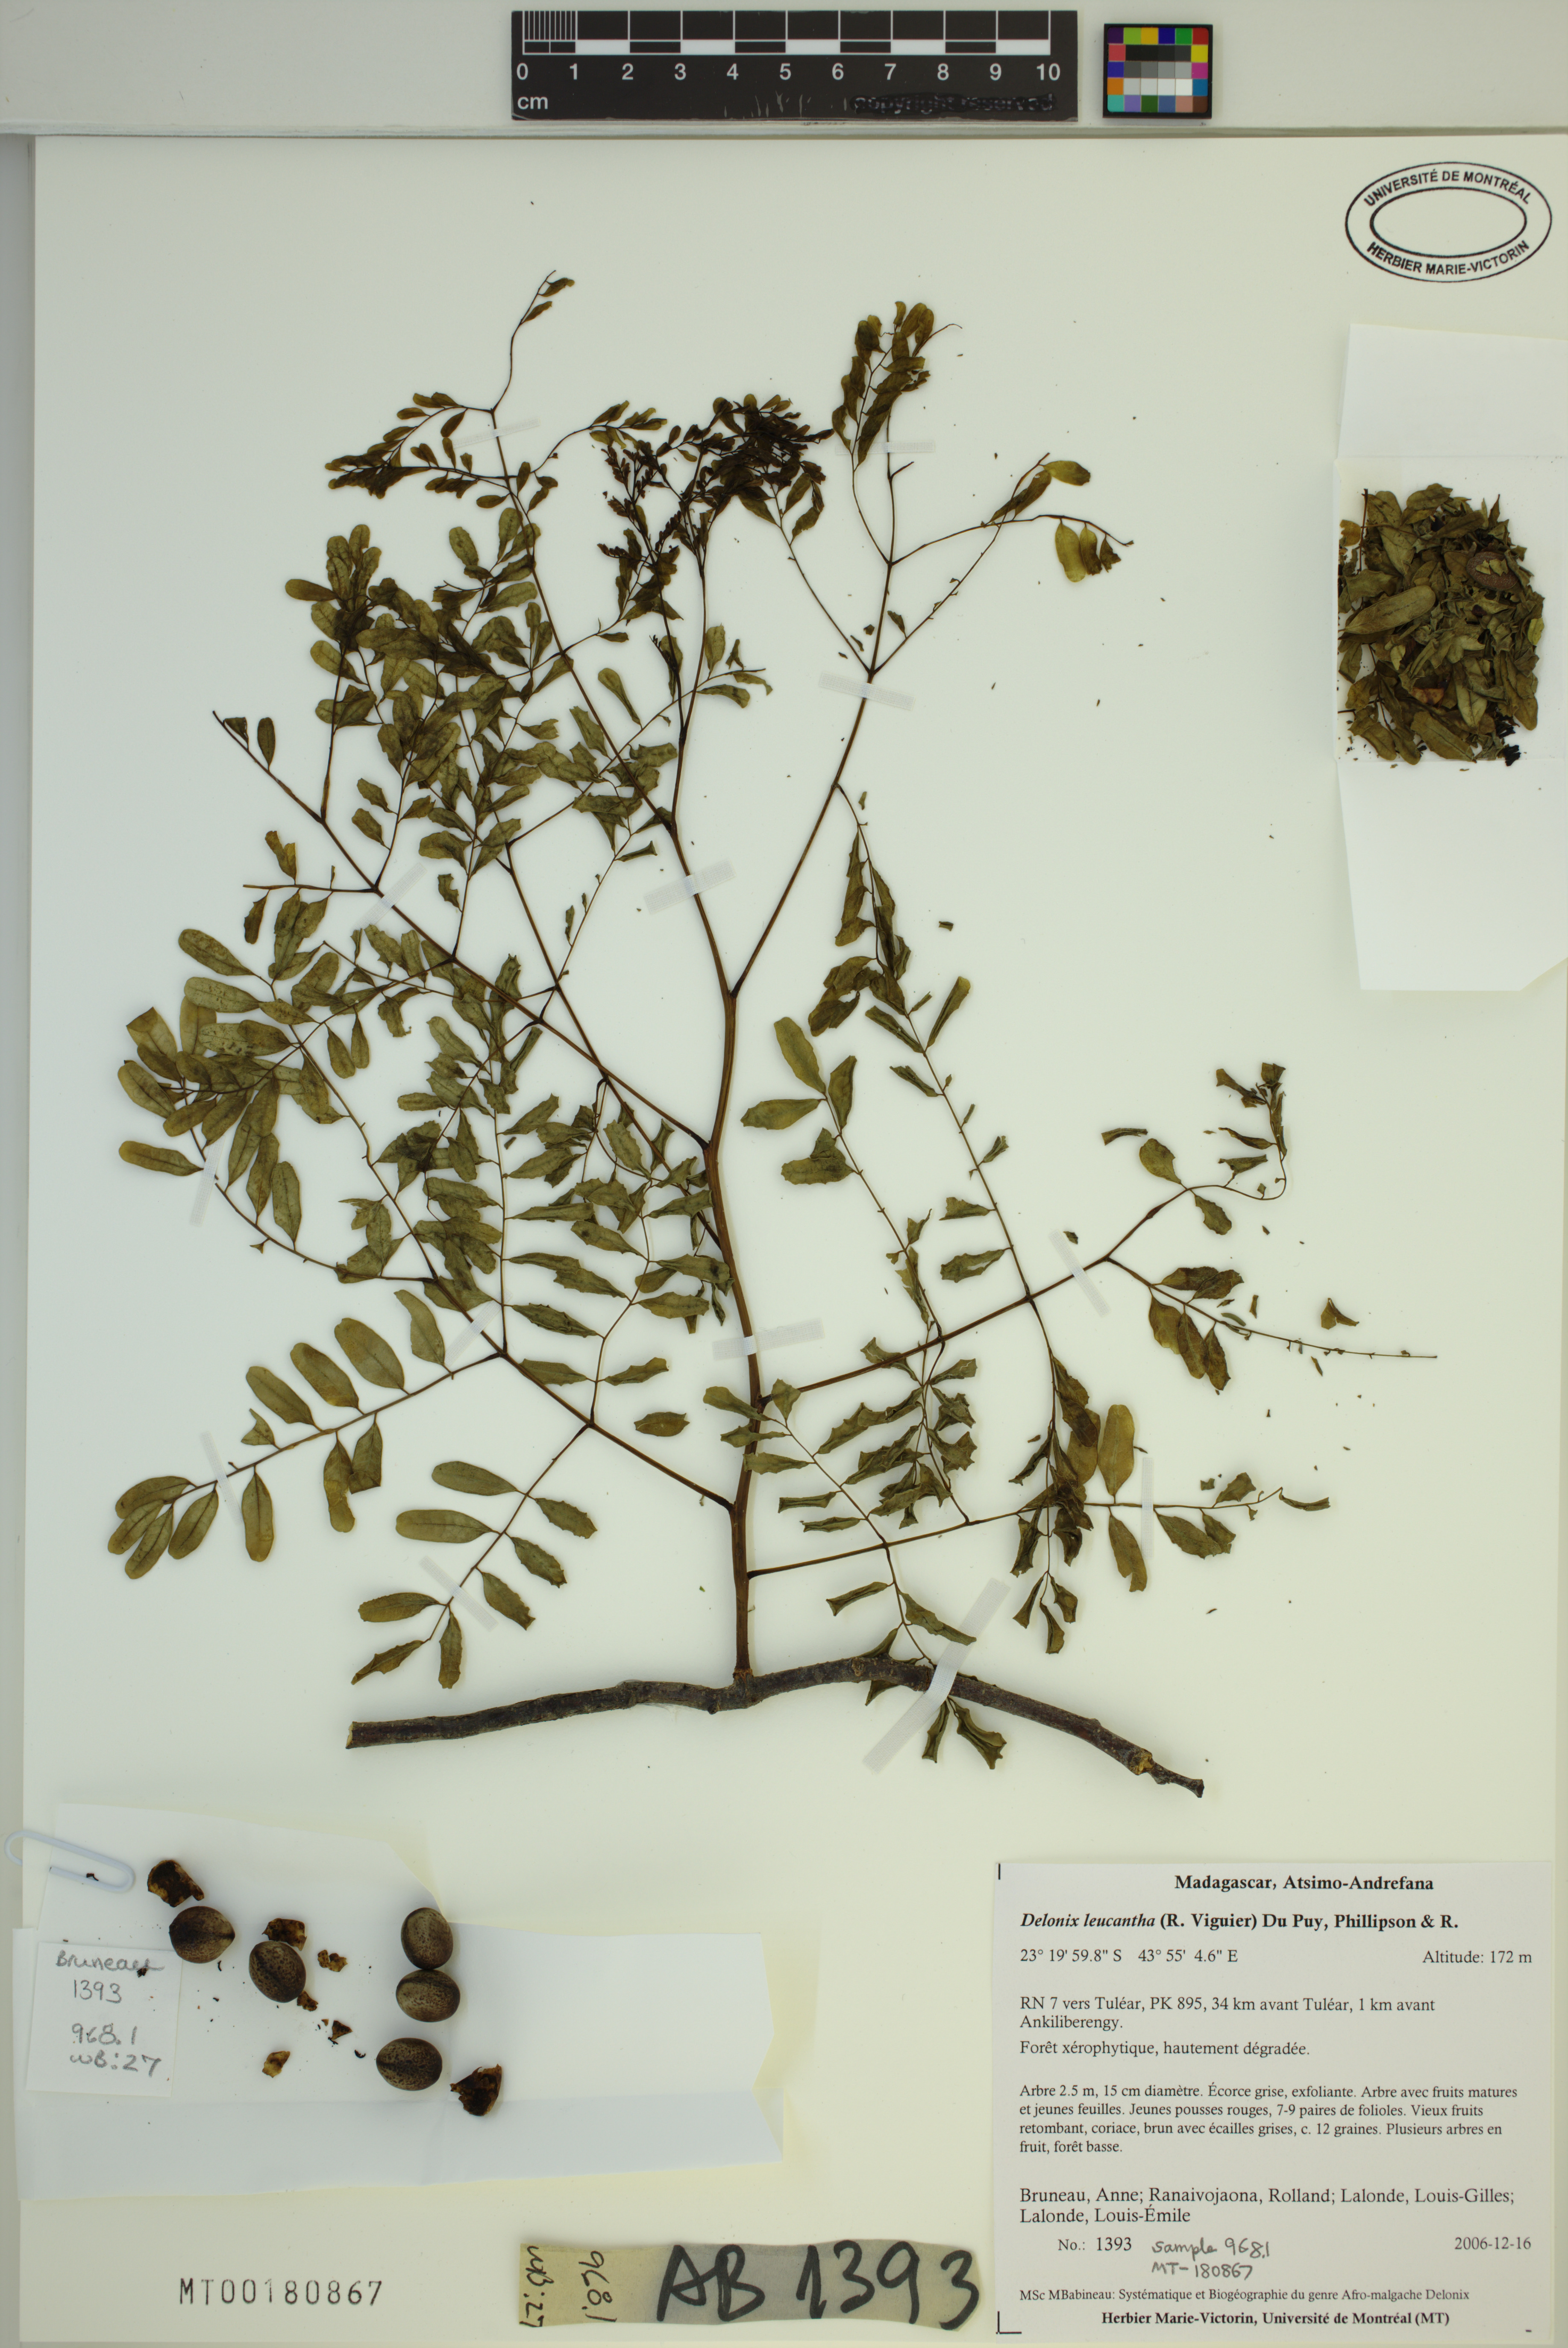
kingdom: Plantae
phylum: Tracheophyta
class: Magnoliopsida
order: Fabales
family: Fabaceae
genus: Delonix
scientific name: Delonix leucantha
